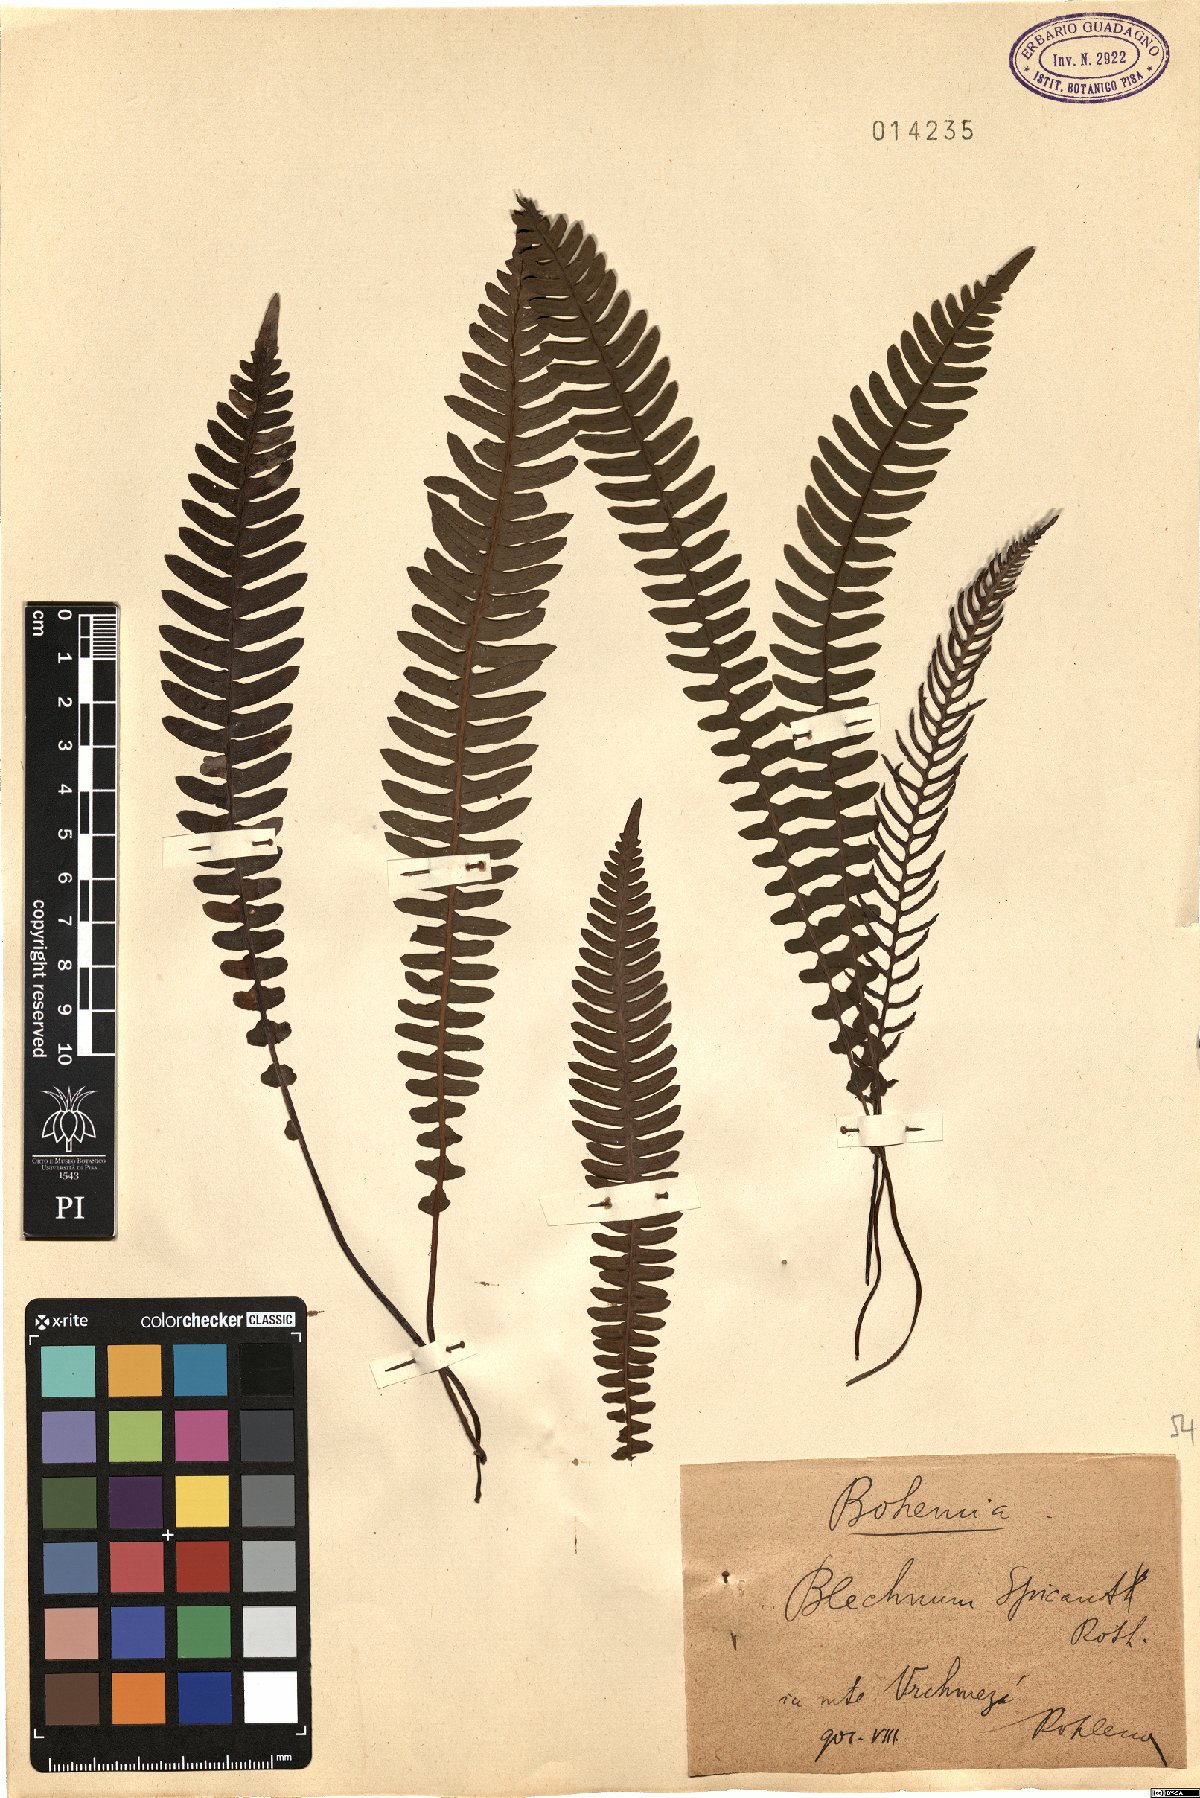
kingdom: Plantae
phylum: Tracheophyta
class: Polypodiopsida
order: Polypodiales
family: Blechnaceae
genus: Struthiopteris
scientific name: Struthiopteris spicant
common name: Deer fern
